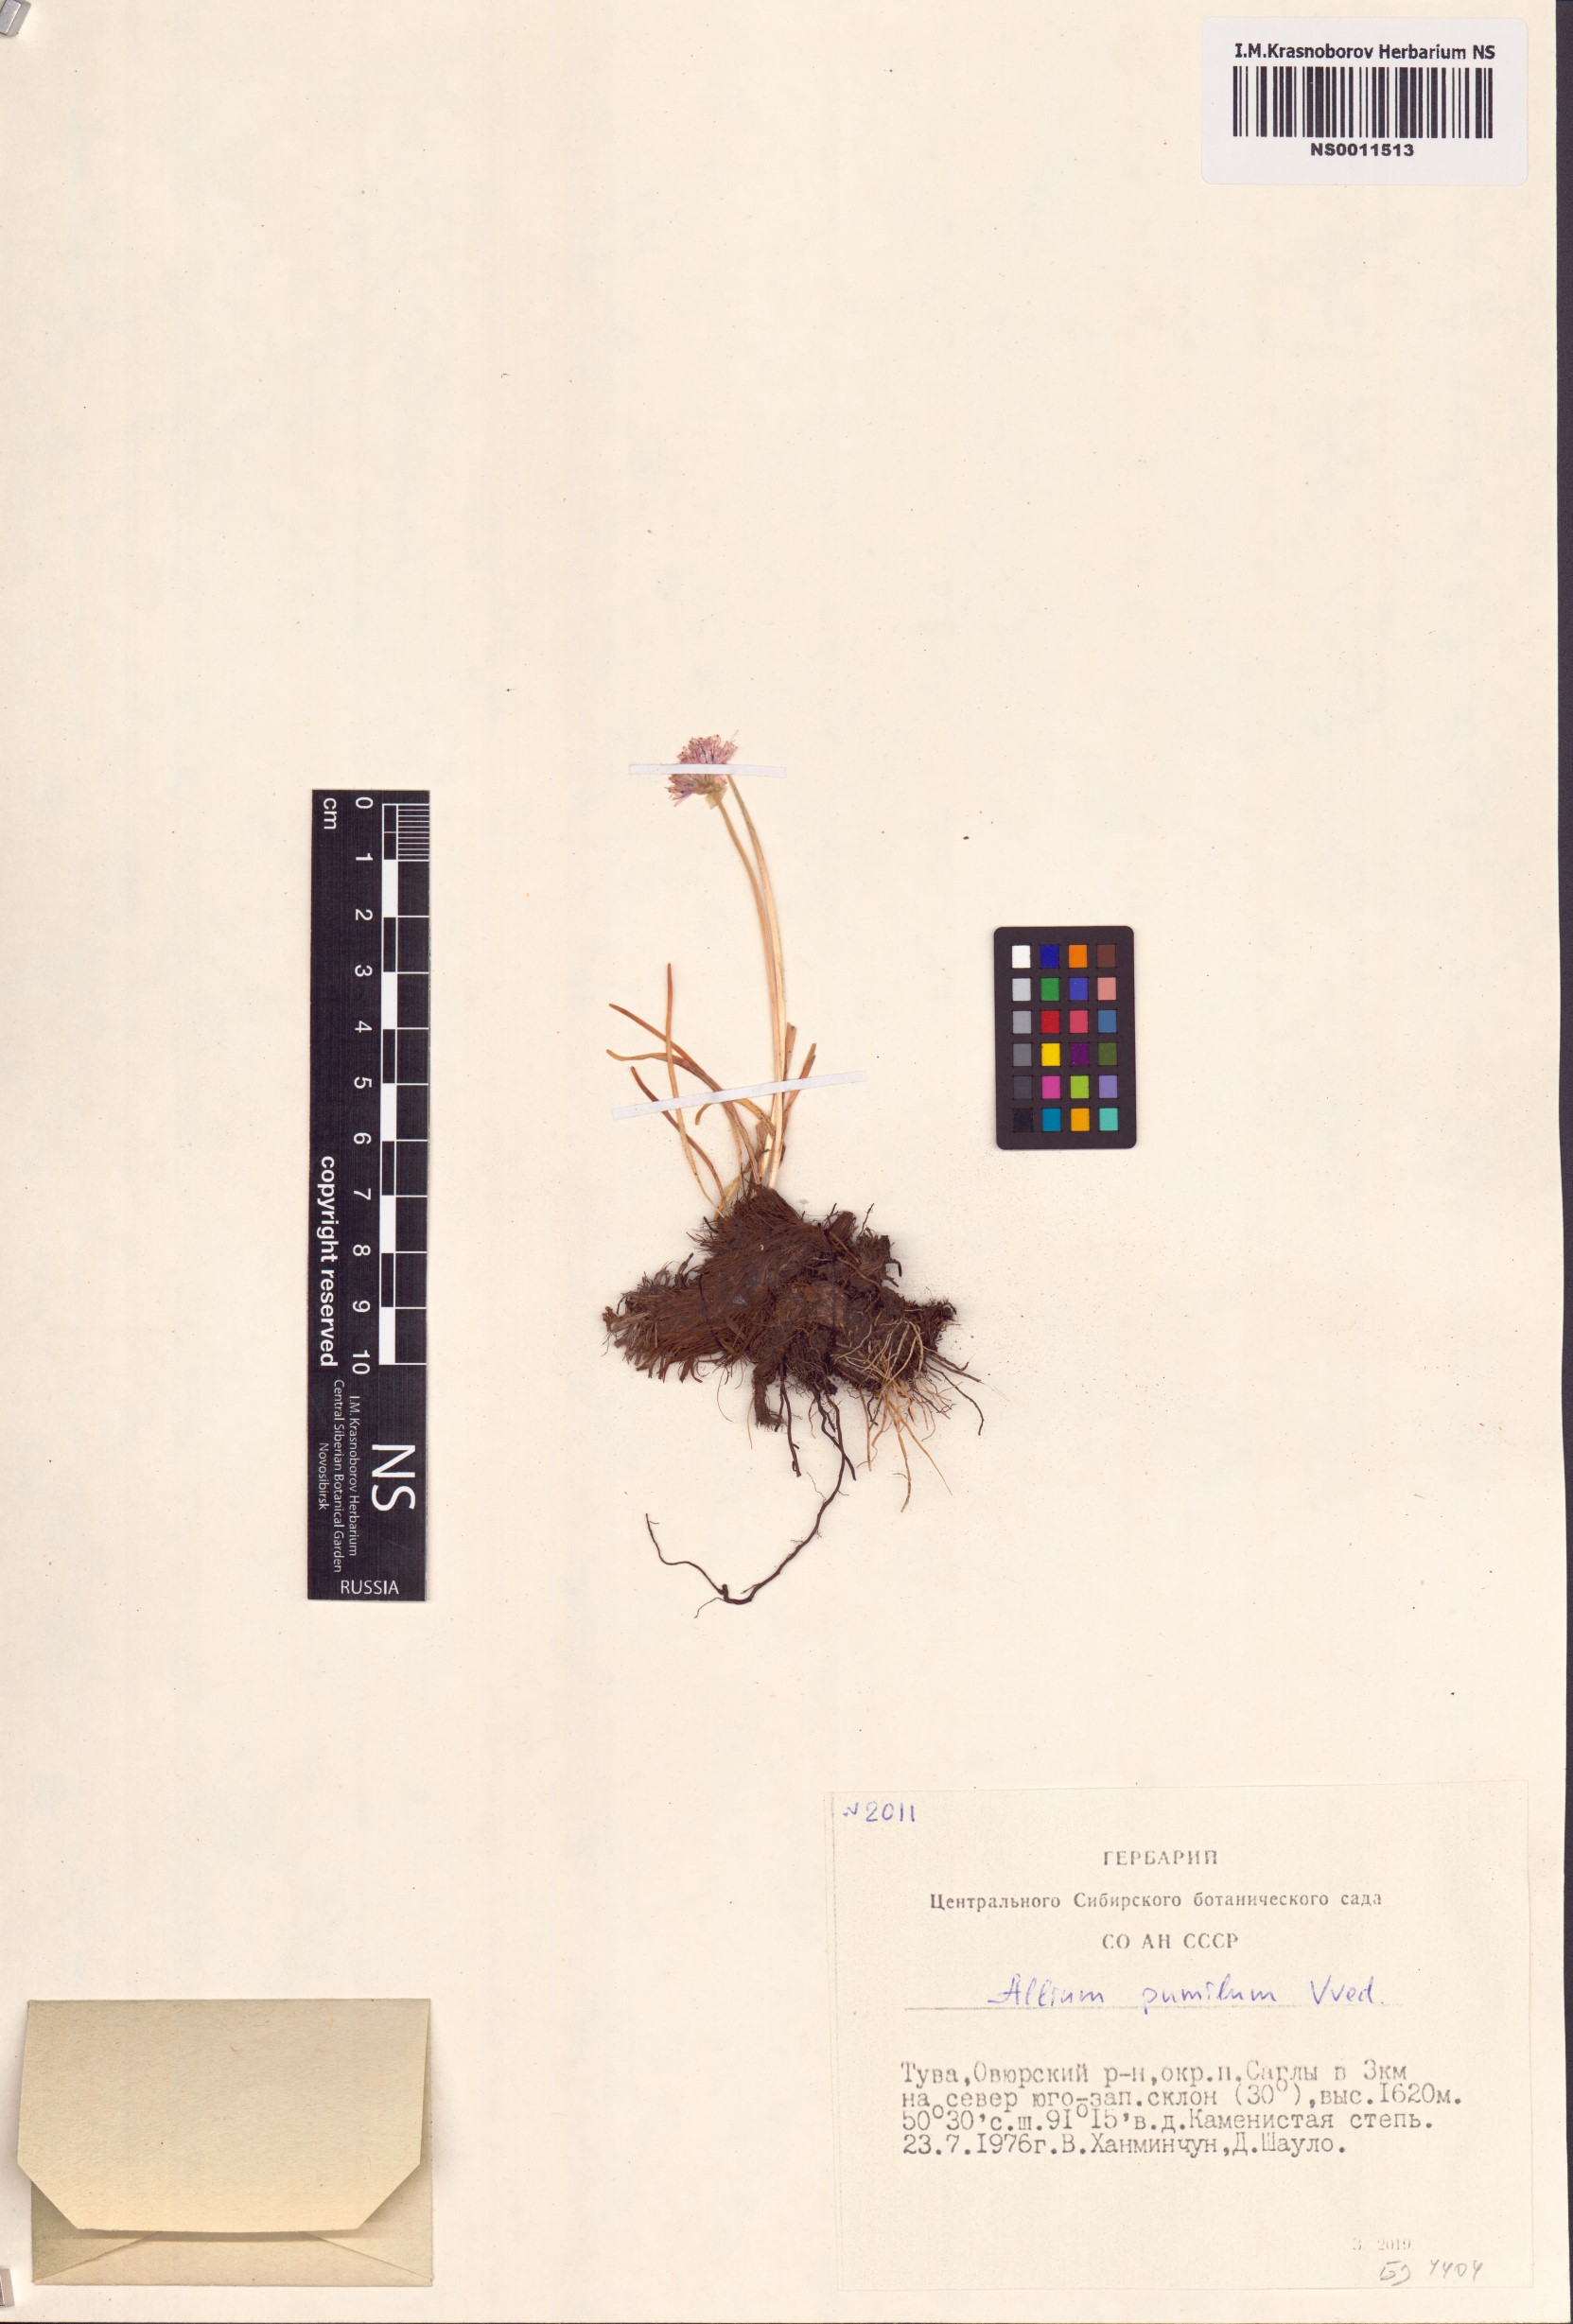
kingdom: Plantae
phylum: Tracheophyta
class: Liliopsida
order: Asparagales
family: Amaryllidaceae
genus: Allium
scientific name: Allium pumilum
